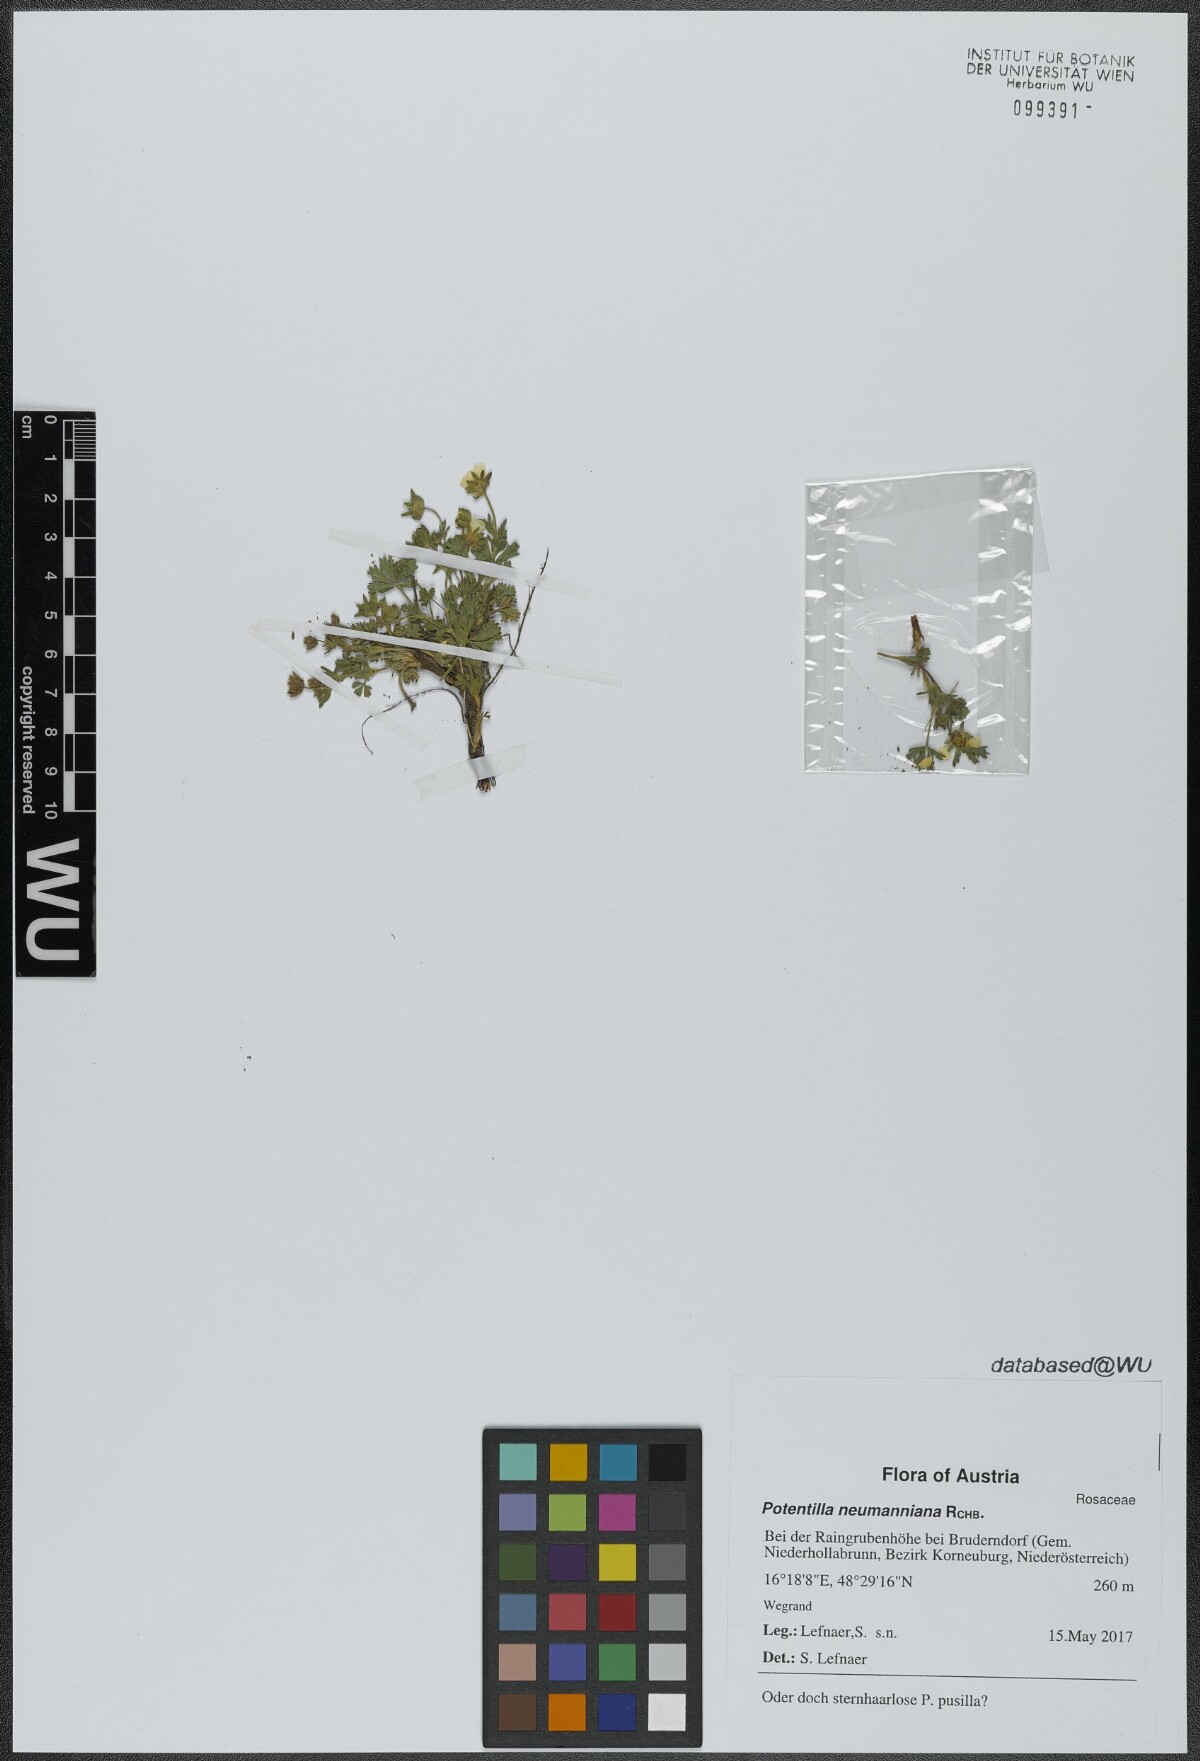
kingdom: Plantae
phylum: Tracheophyta
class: Magnoliopsida
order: Rosales
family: Rosaceae
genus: Potentilla
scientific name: Potentilla verna
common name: Spring cinquefoil
